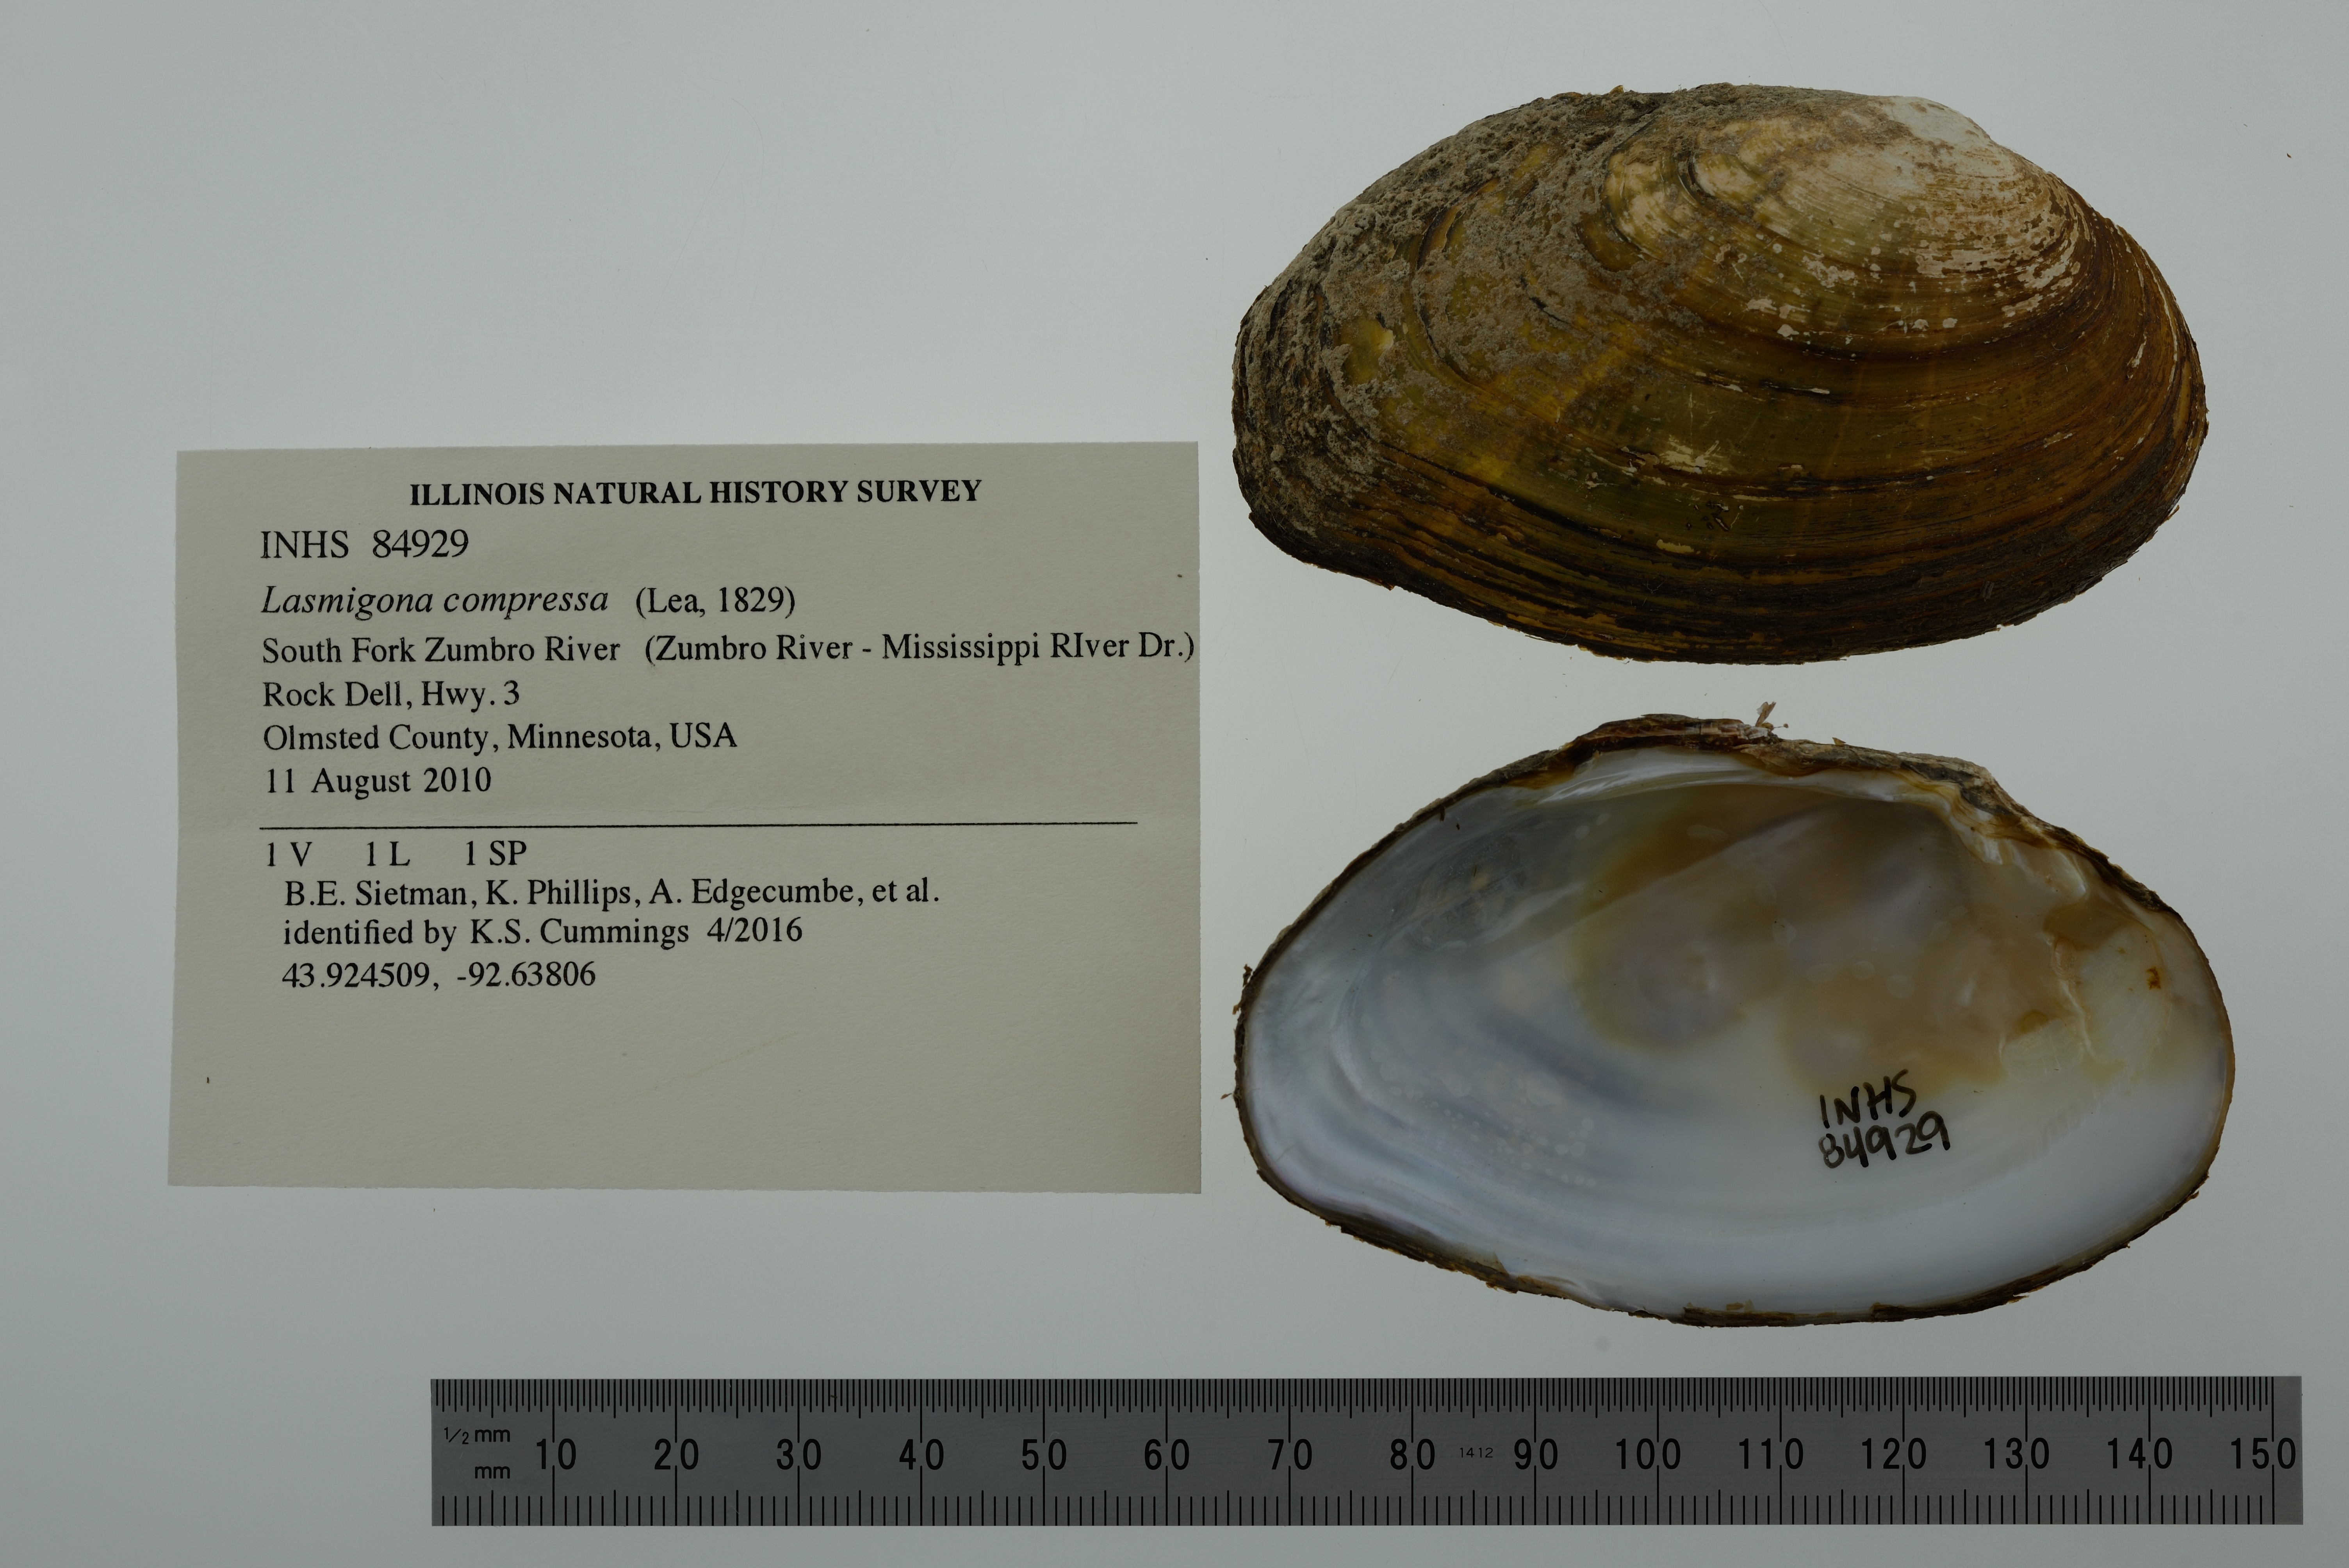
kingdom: Animalia
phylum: Mollusca
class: Bivalvia
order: Unionida
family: Unionidae
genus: Lasmigona
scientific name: Lasmigona compressa
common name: Creek heelsplitter
